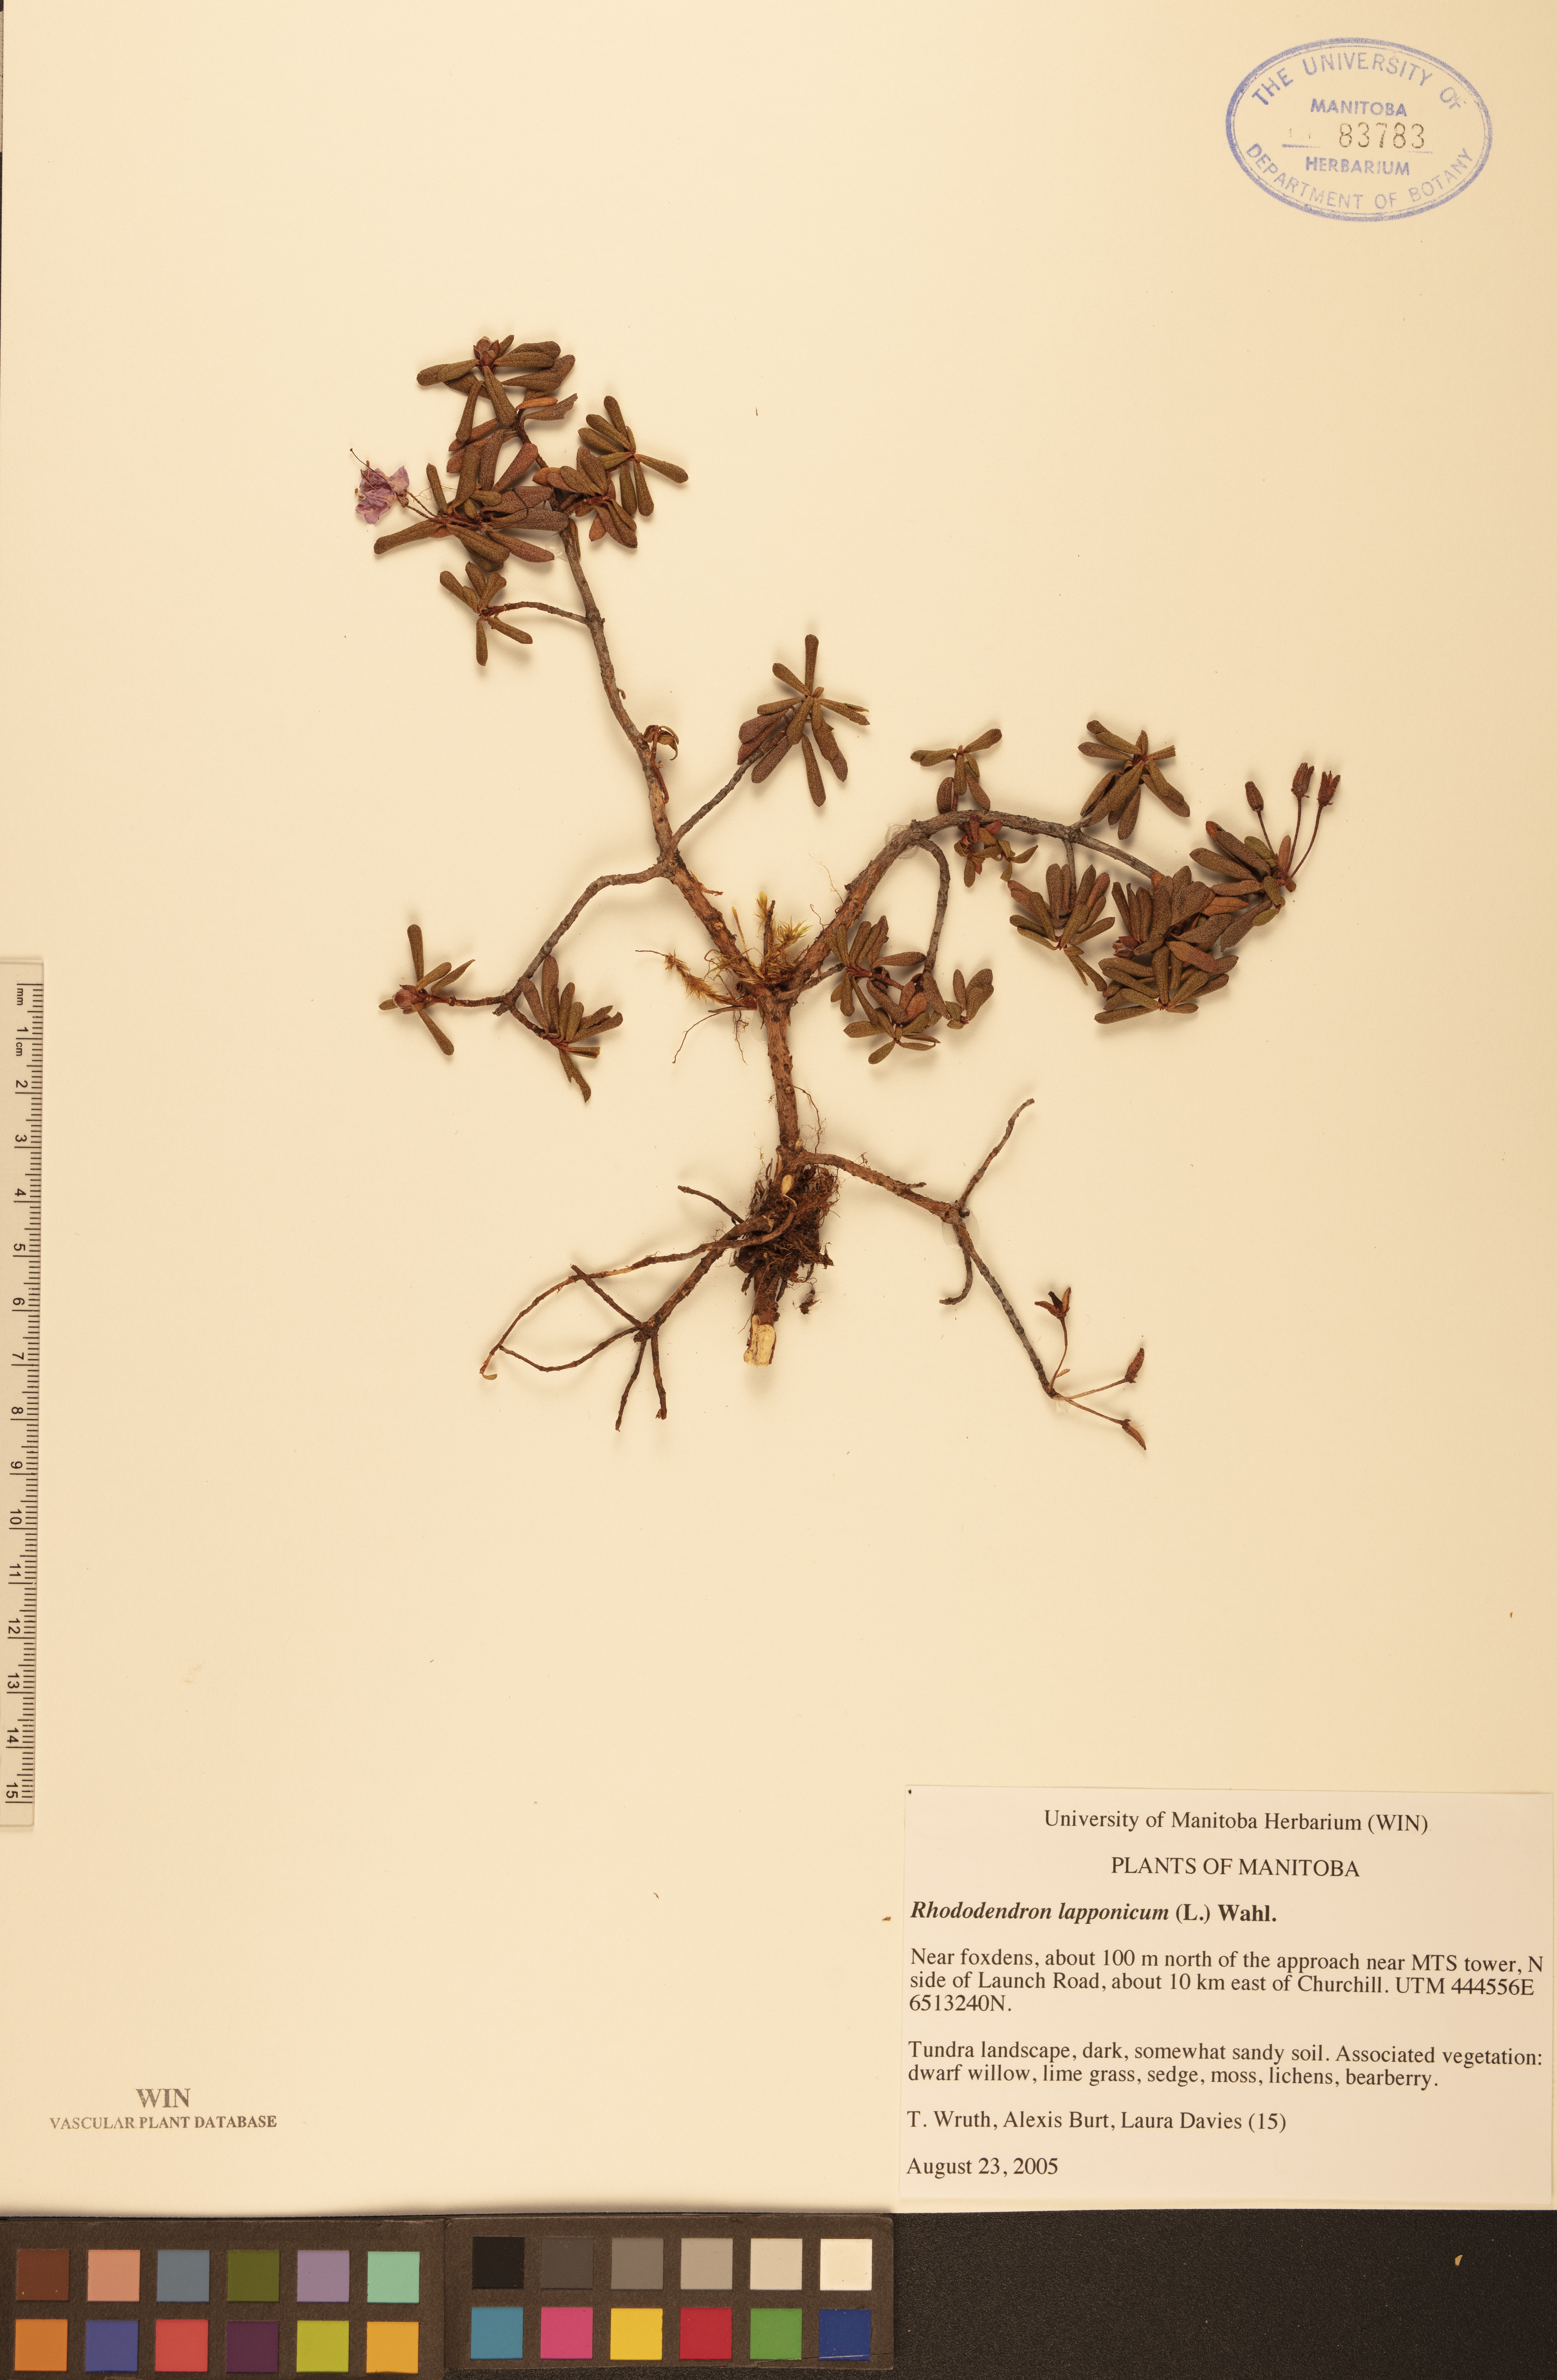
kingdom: Plantae
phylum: Tracheophyta
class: Magnoliopsida
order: Ericales
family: Ericaceae
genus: Rhododendron
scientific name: Rhododendron lapponicum
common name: Lapland rhododendron
